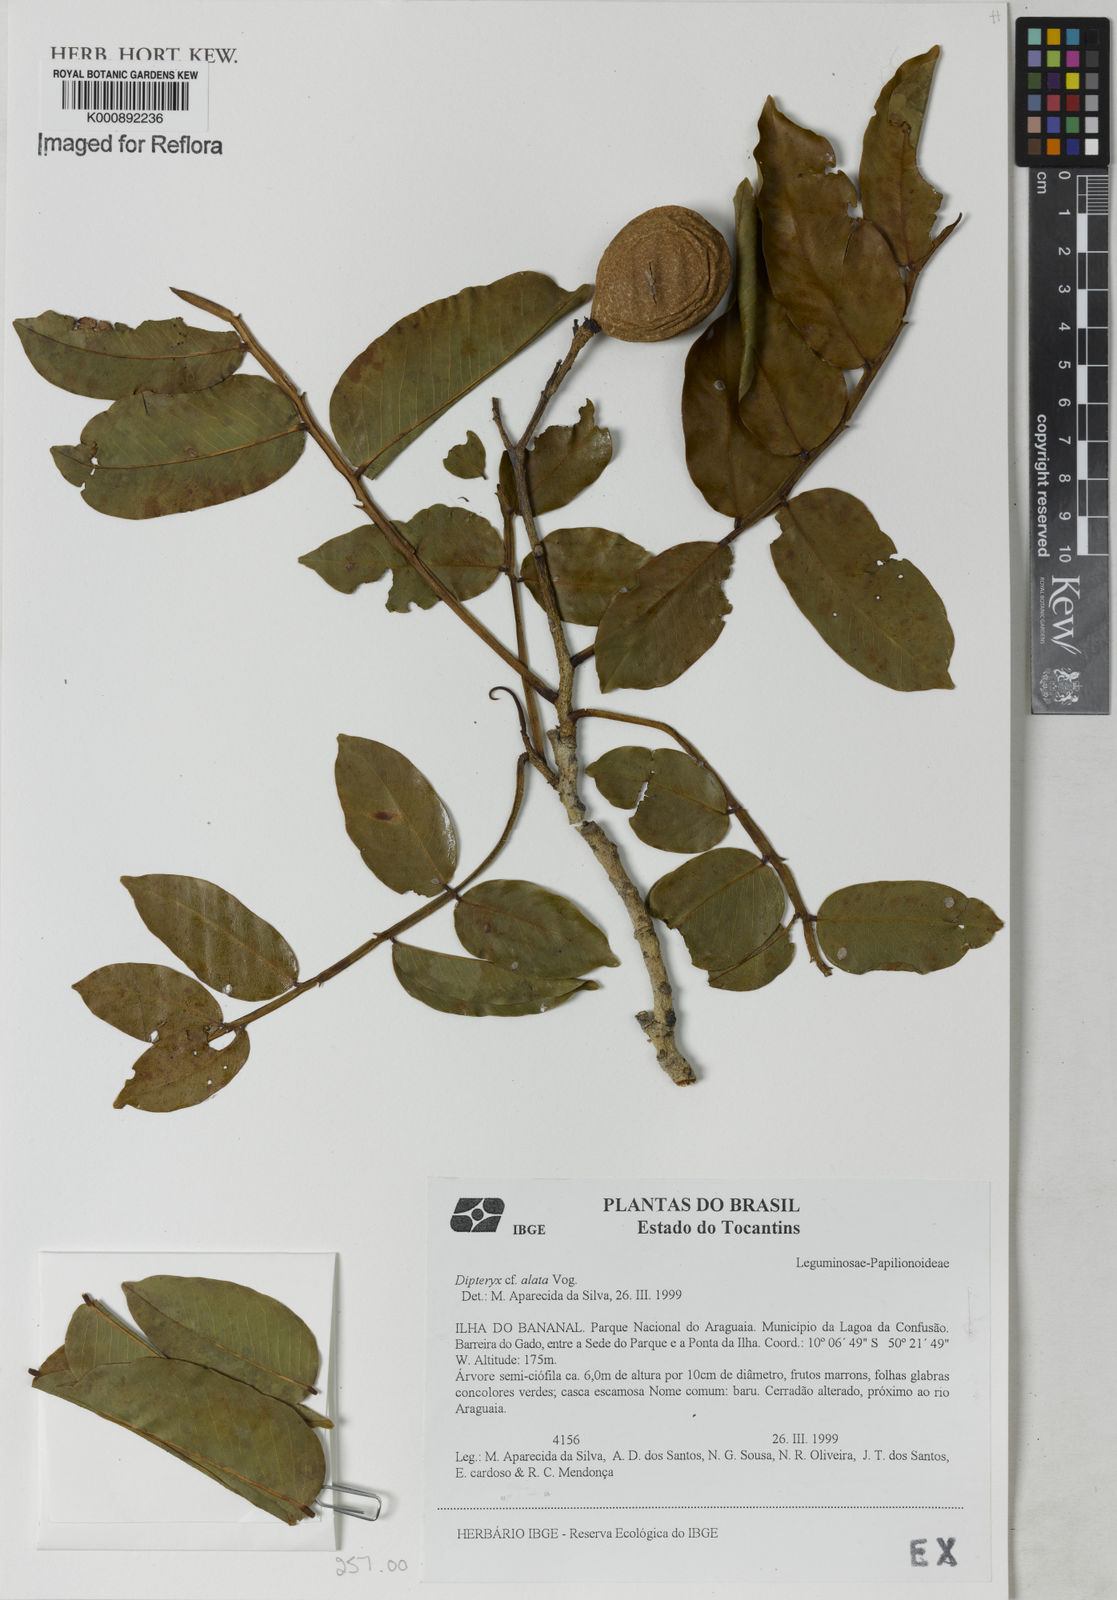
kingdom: Plantae
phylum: Tracheophyta
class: Magnoliopsida
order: Fabales
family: Fabaceae
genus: Dipteryx
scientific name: Dipteryx alata
